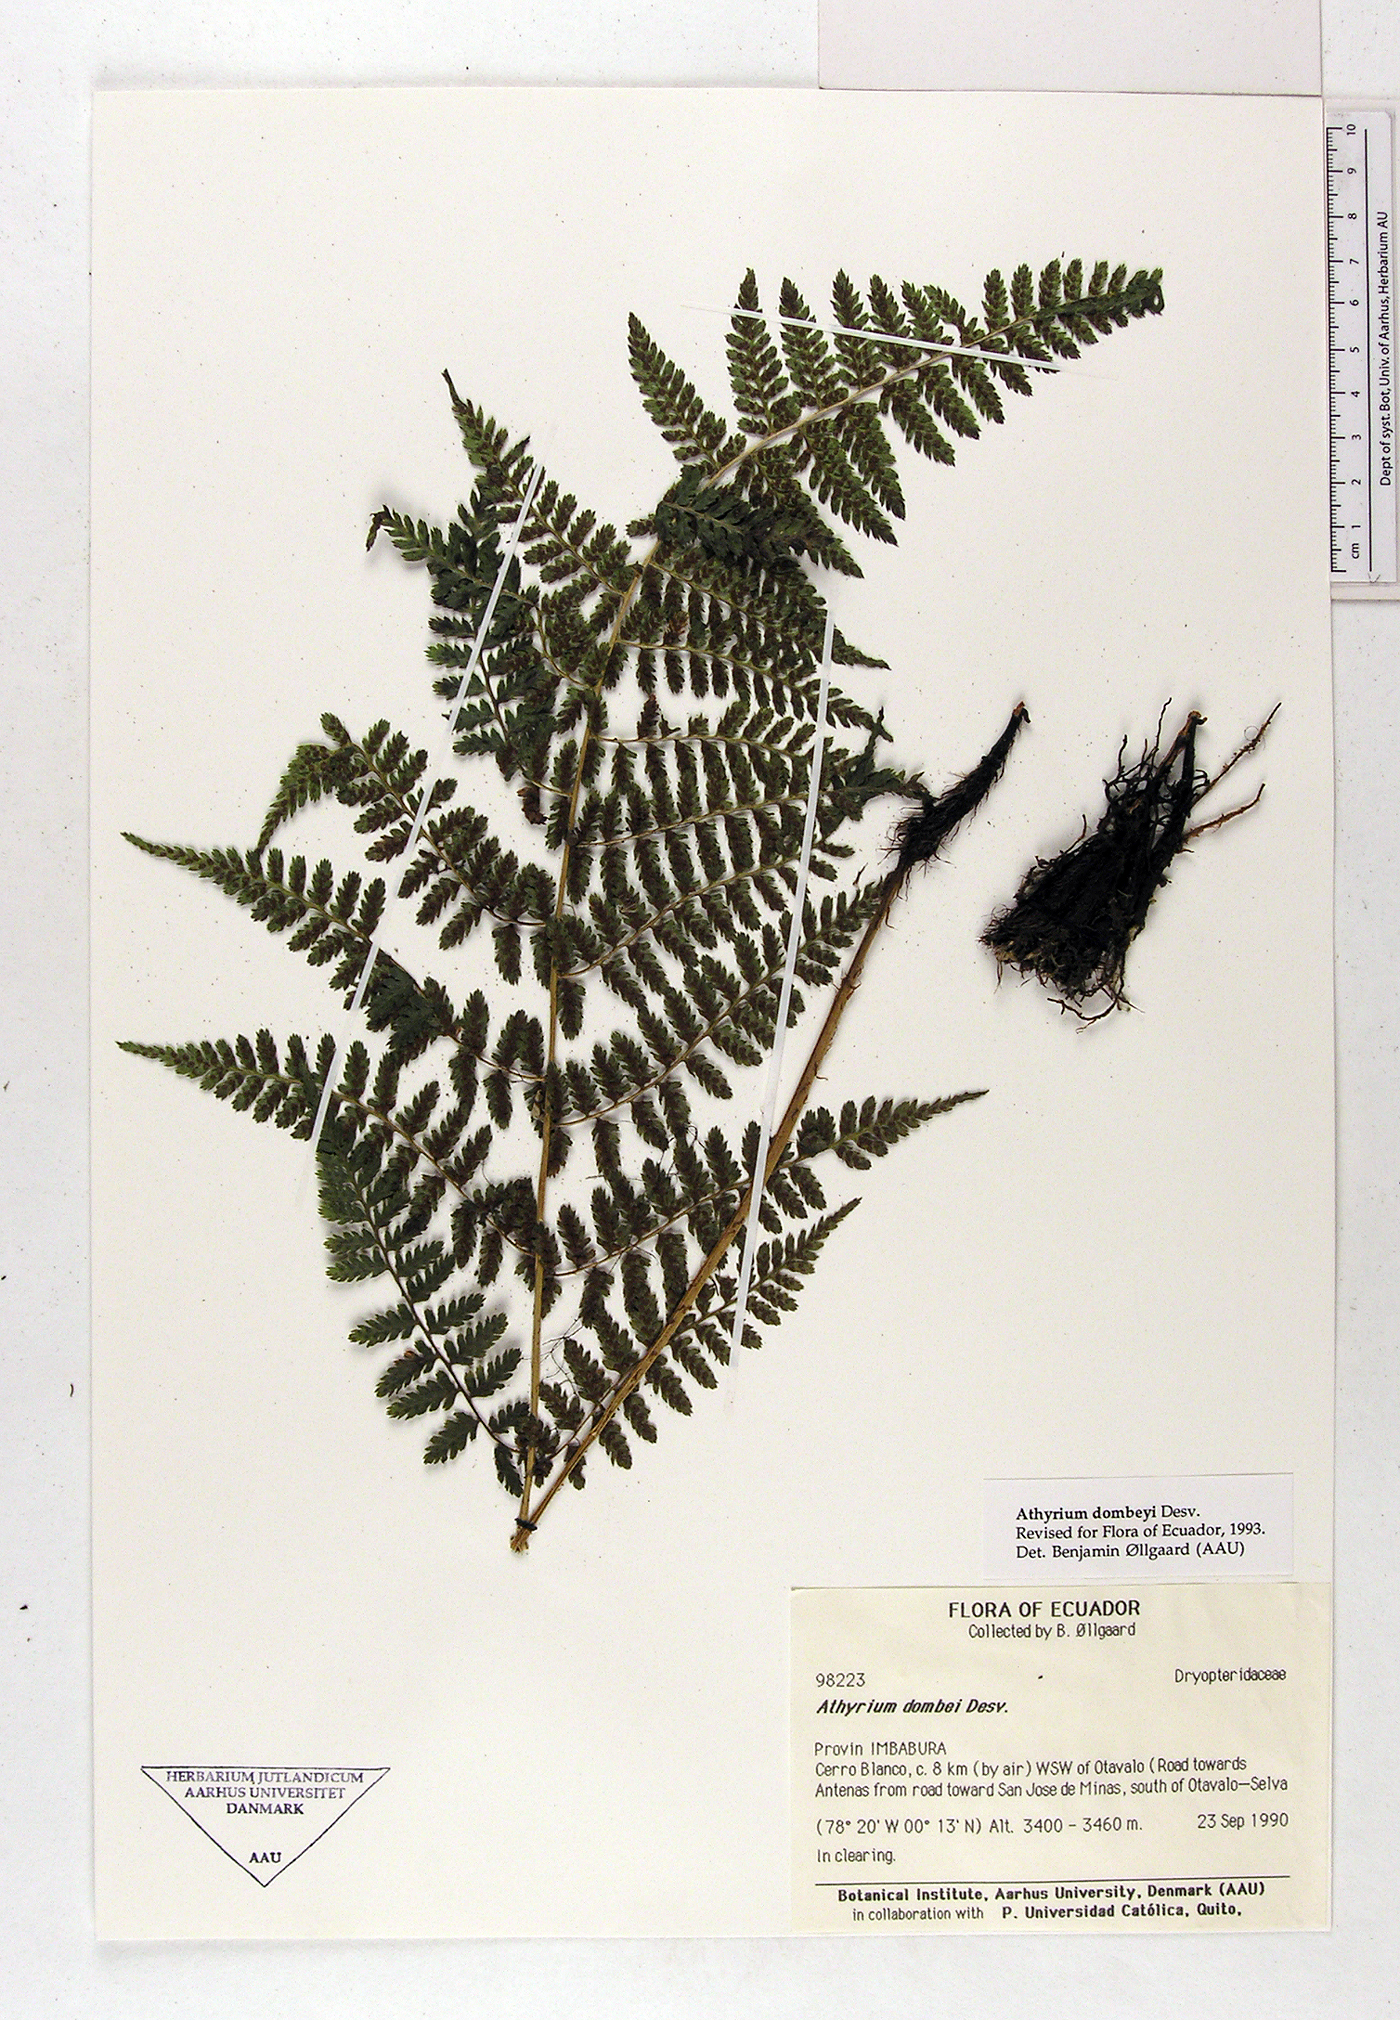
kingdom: Plantae
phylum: Tracheophyta
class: Polypodiopsida
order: Polypodiales
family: Athyriaceae
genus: Athyrium
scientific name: Athyrium dombeyi
